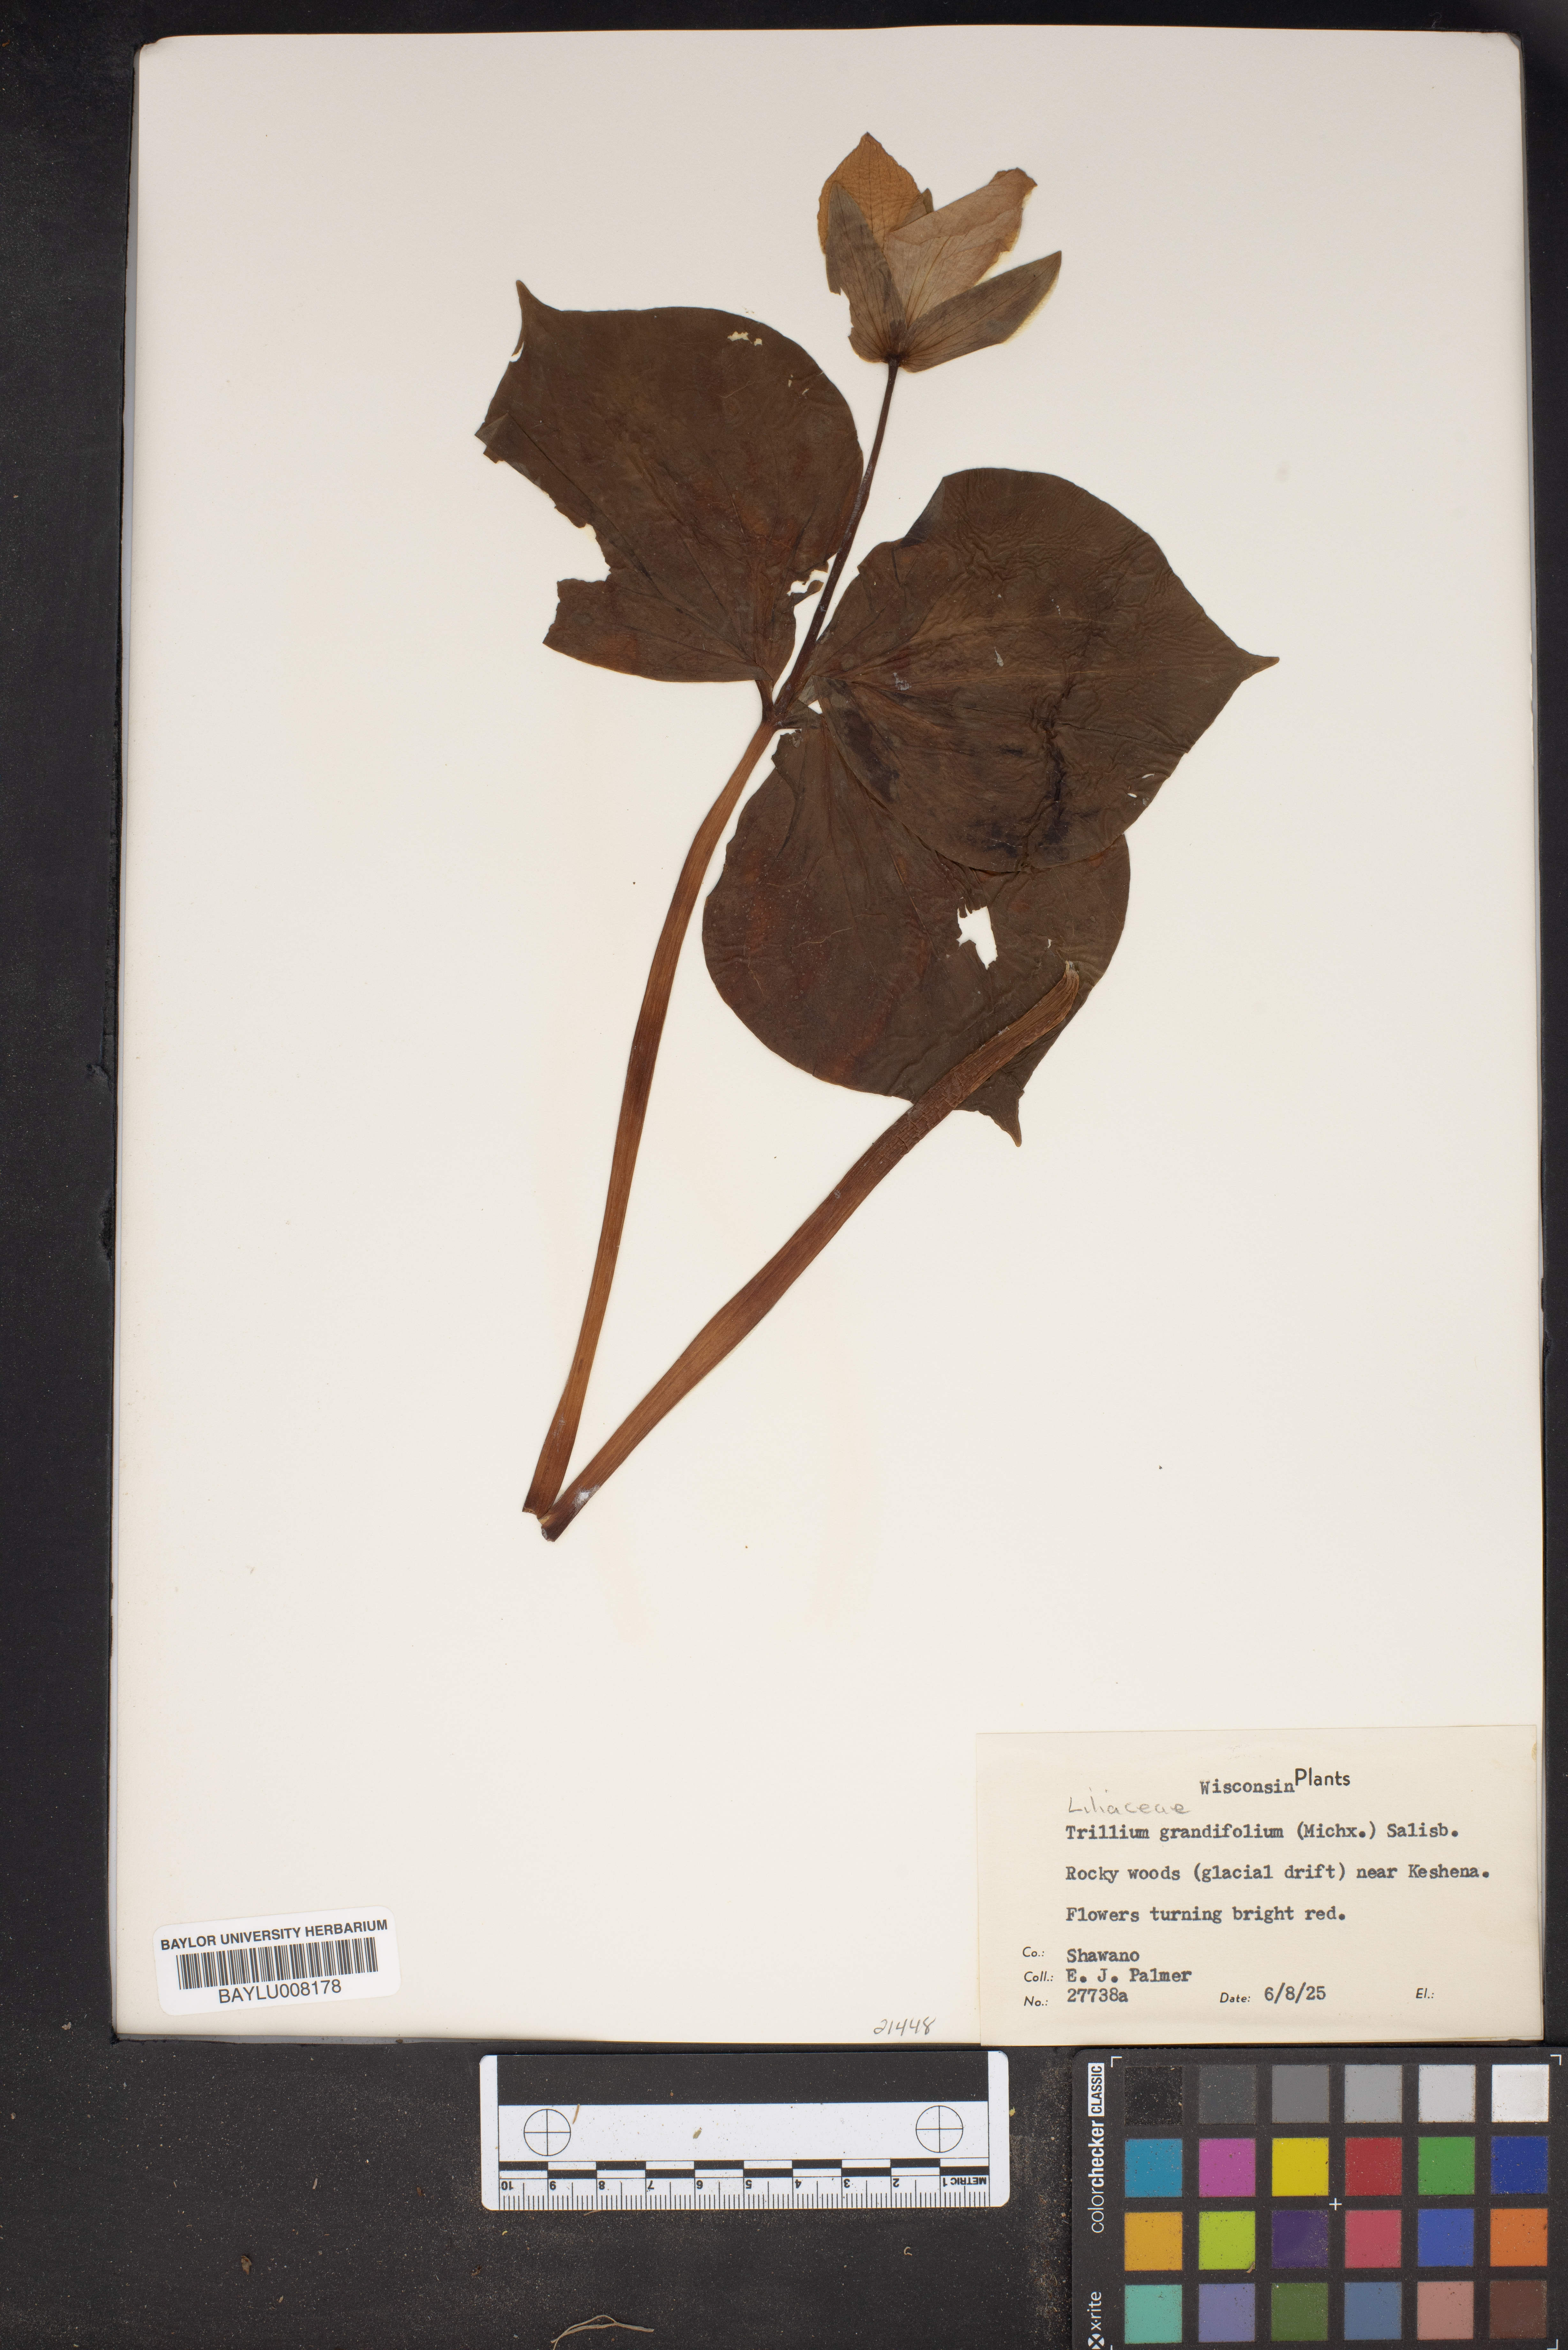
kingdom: Plantae
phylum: Tracheophyta
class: Liliopsida
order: Liliales
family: Melanthiaceae
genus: Trillium
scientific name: Trillium grandiflorum
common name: Great white trillium
